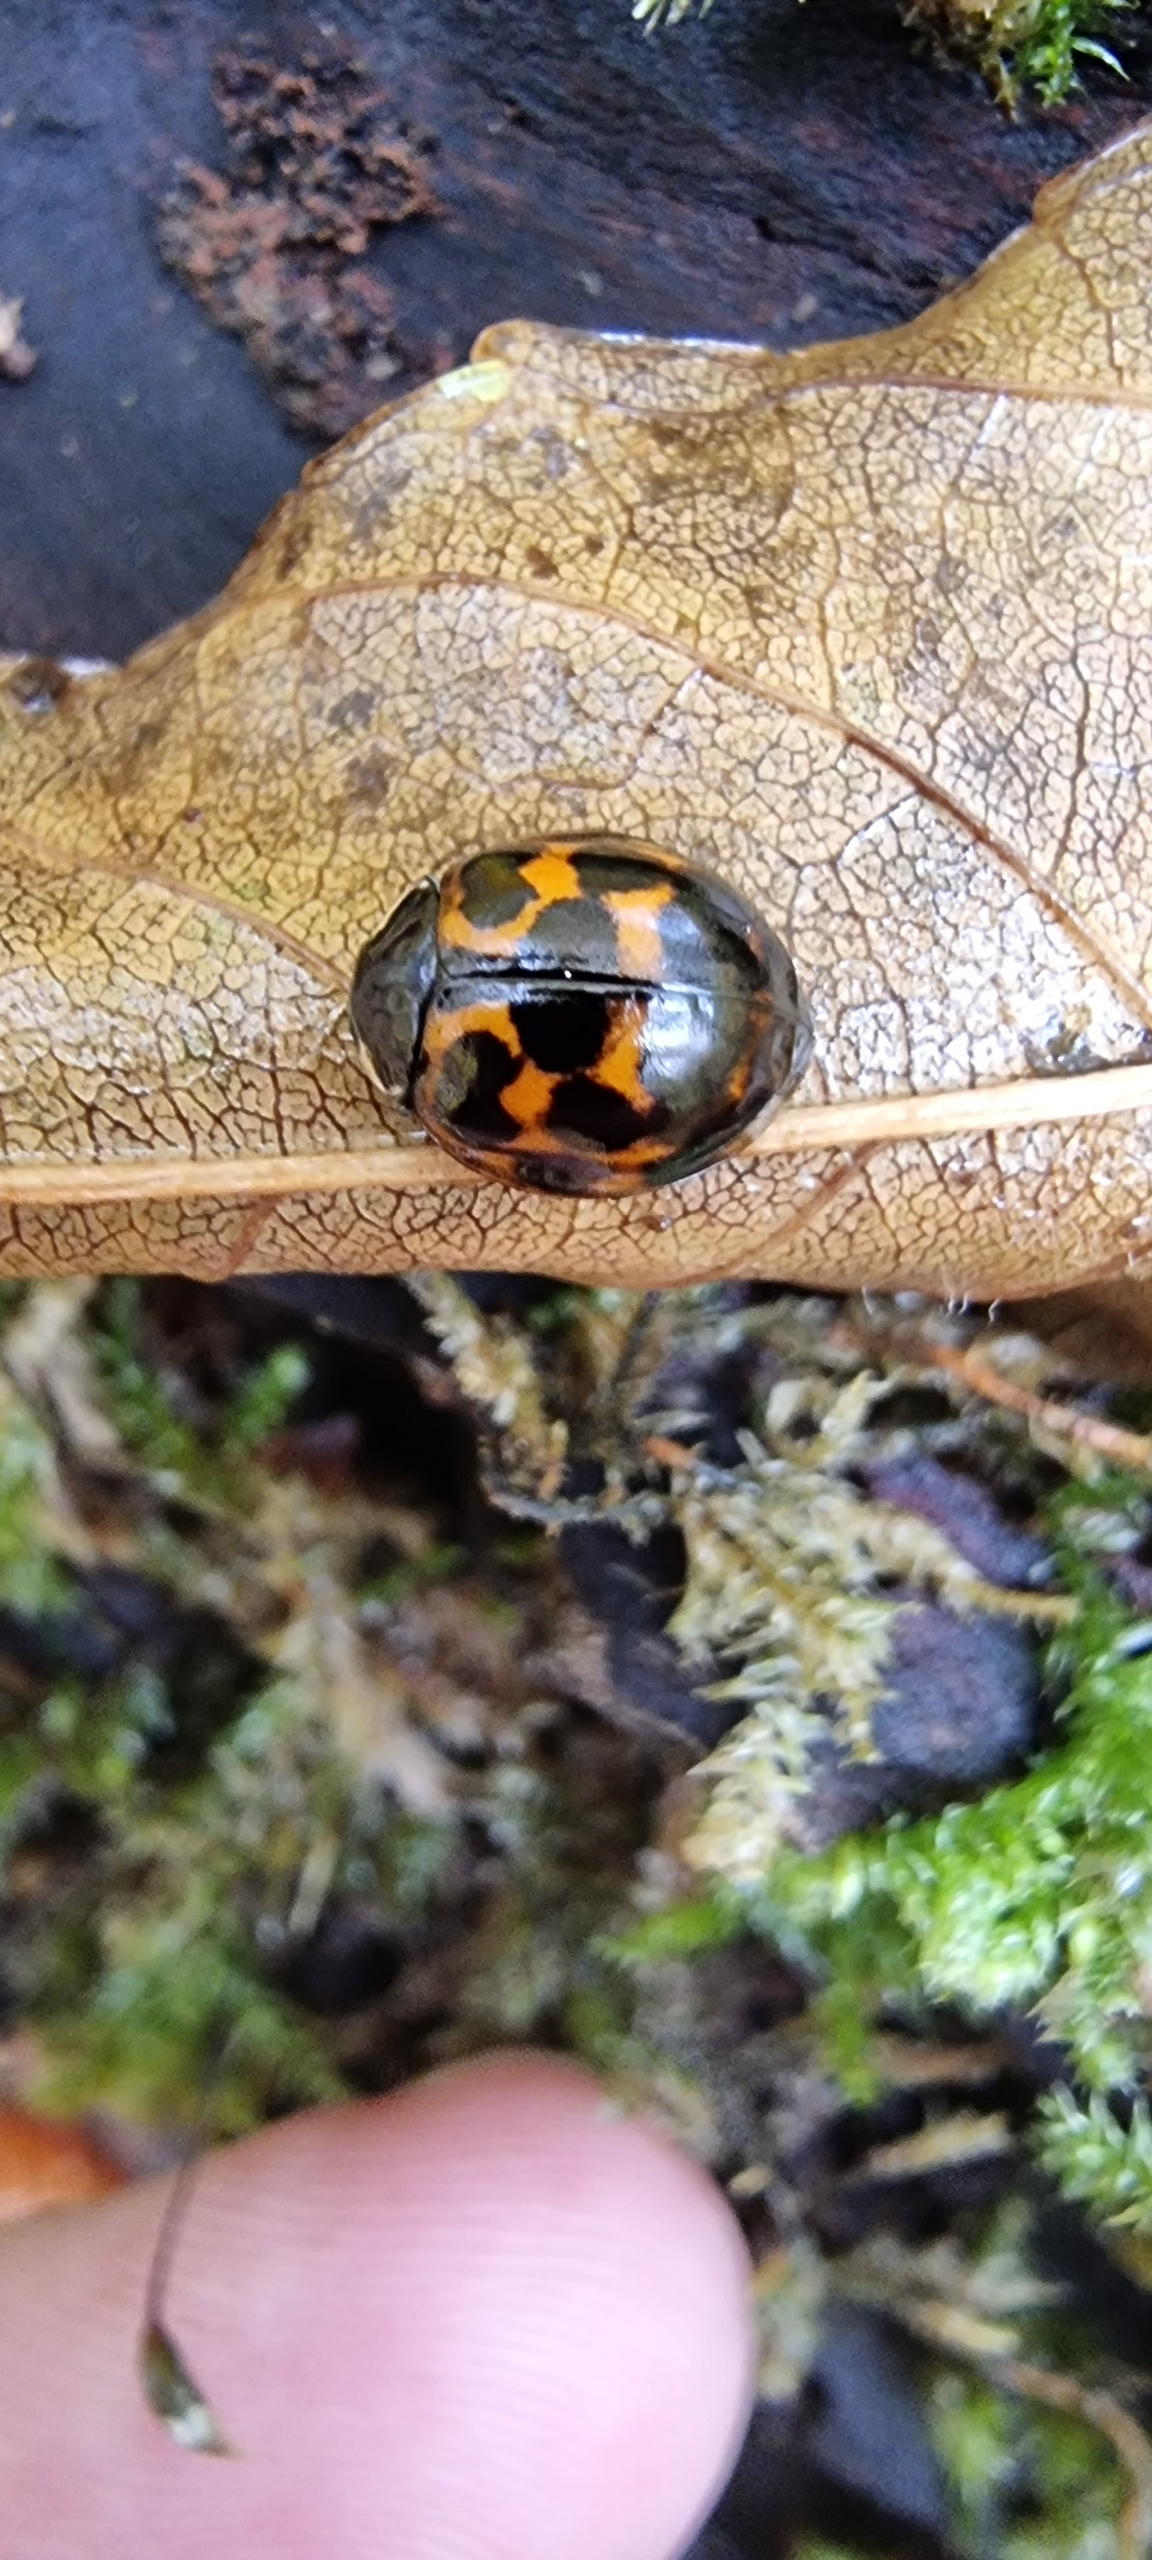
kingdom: Animalia
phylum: Arthropoda
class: Insecta
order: Coleoptera
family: Coccinellidae
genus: Harmonia
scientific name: Harmonia axyridis
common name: Harlekinmariehøne
